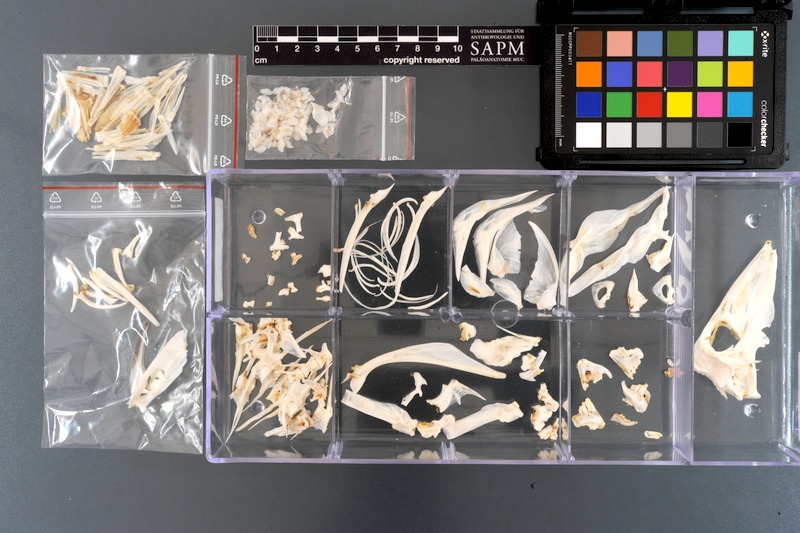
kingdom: Animalia
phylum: Chordata
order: Tetraodontiformes
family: Balistidae
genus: Sufflamen
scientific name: Sufflamen fraenatum
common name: Bridle triggerfish
